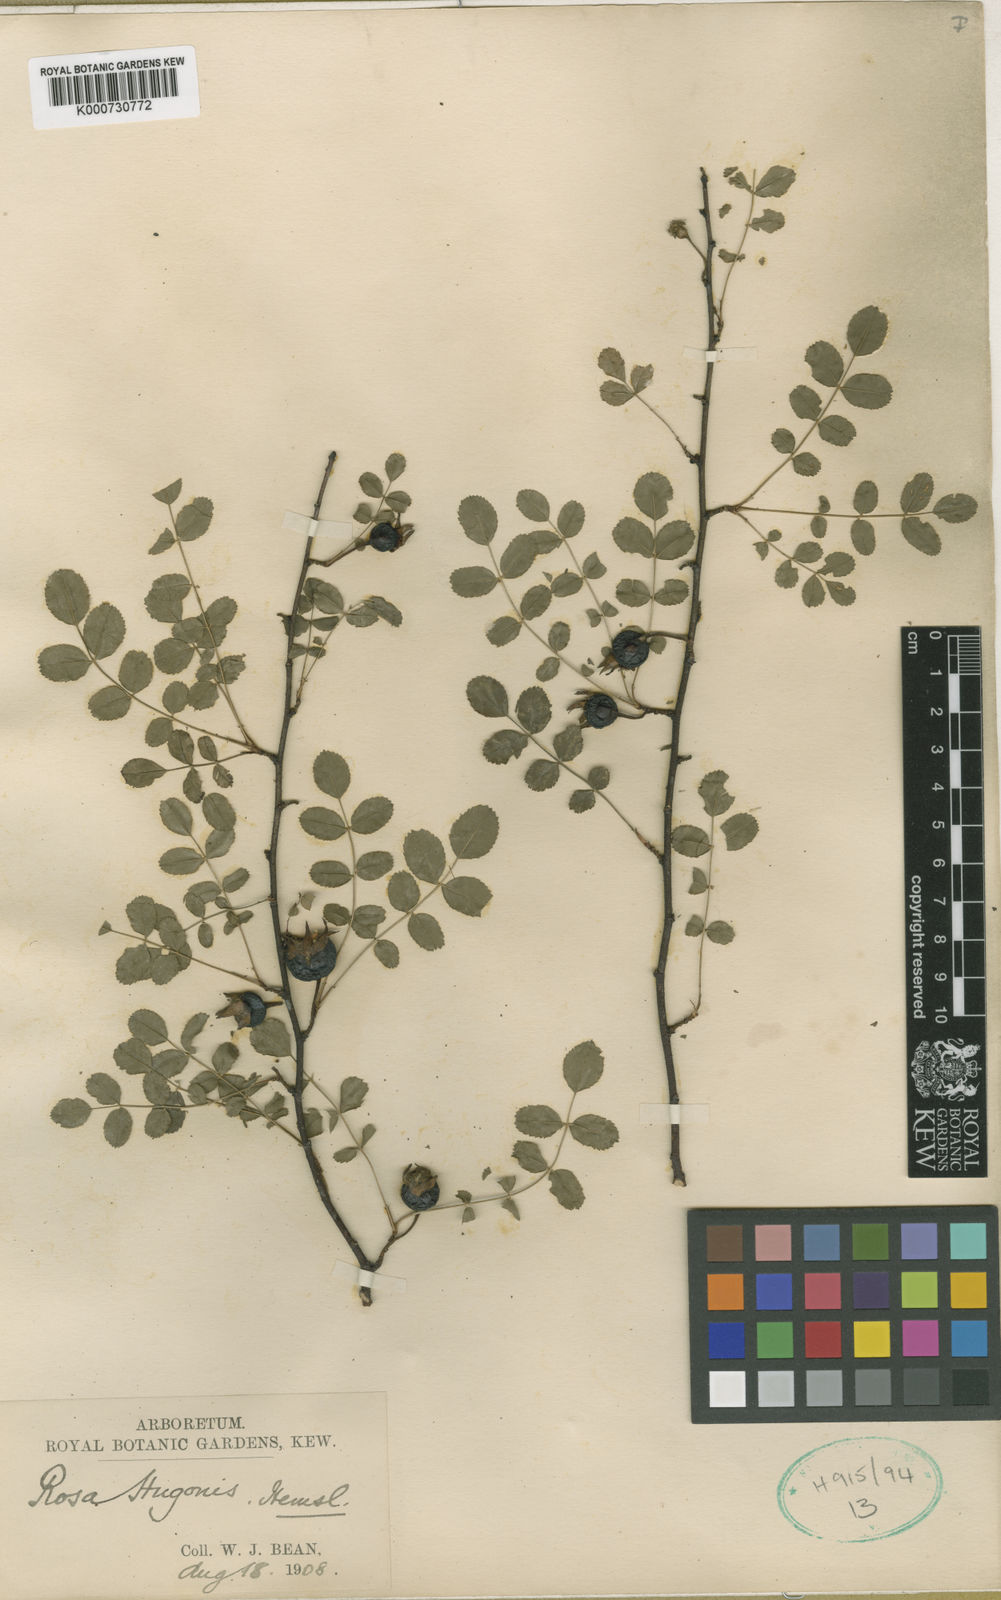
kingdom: Plantae
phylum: Tracheophyta
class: Magnoliopsida
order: Rosales
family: Rosaceae
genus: Rosa
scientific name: Rosa xanthina
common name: Yellow rose
